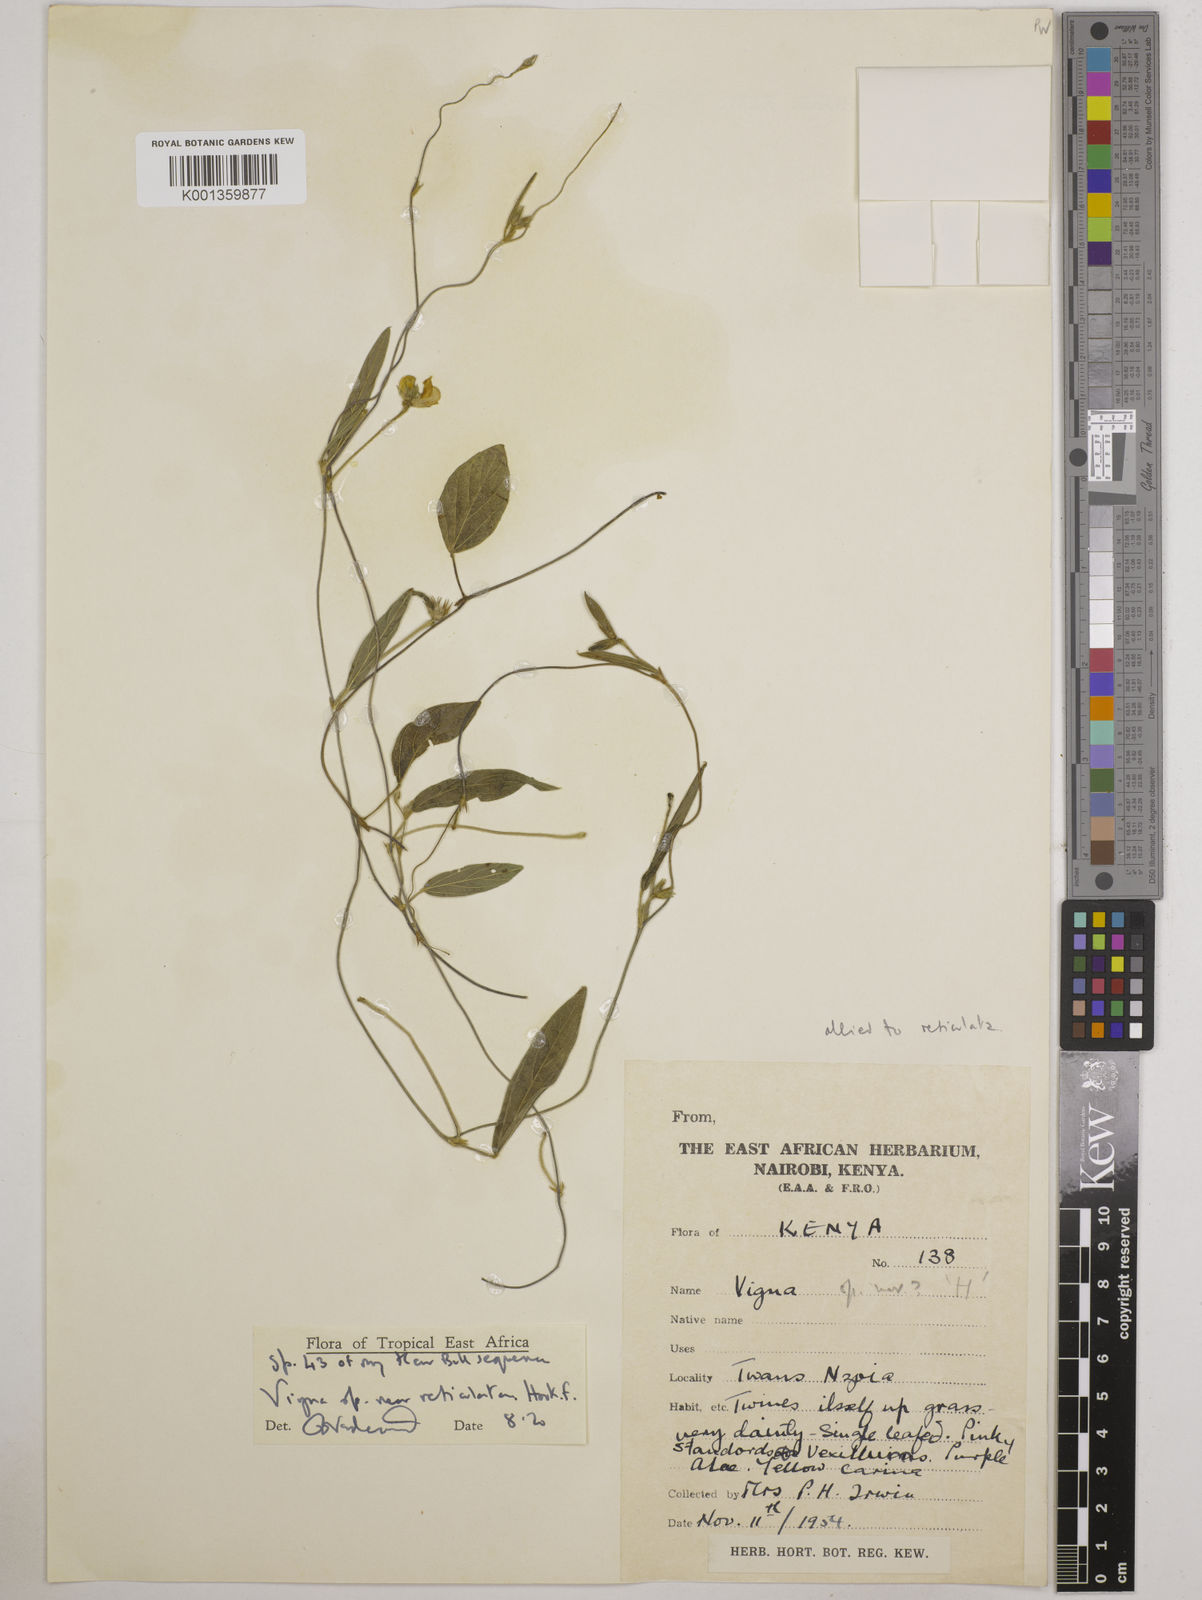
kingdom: Plantae
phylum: Tracheophyta
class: Magnoliopsida
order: Fabales
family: Fabaceae
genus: Vigna
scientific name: Vigna
